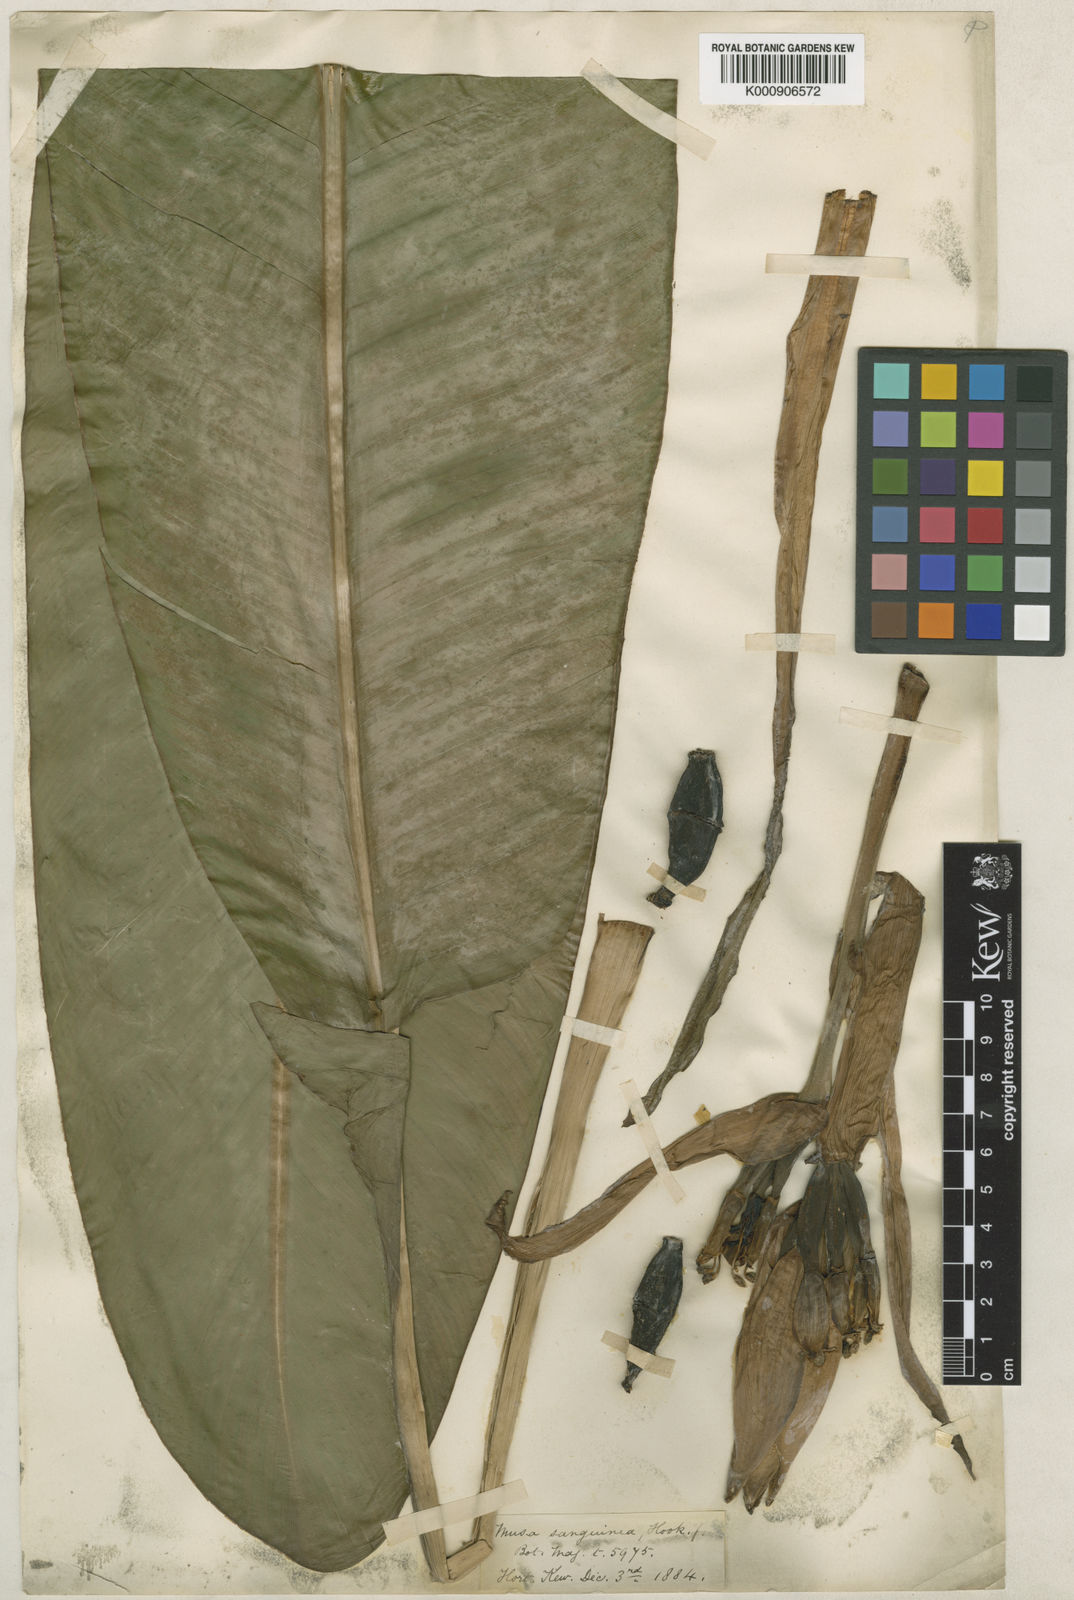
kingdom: Plantae
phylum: Tracheophyta
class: Liliopsida
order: Zingiberales
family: Musaceae
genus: Musa
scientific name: Musa sanguinea
